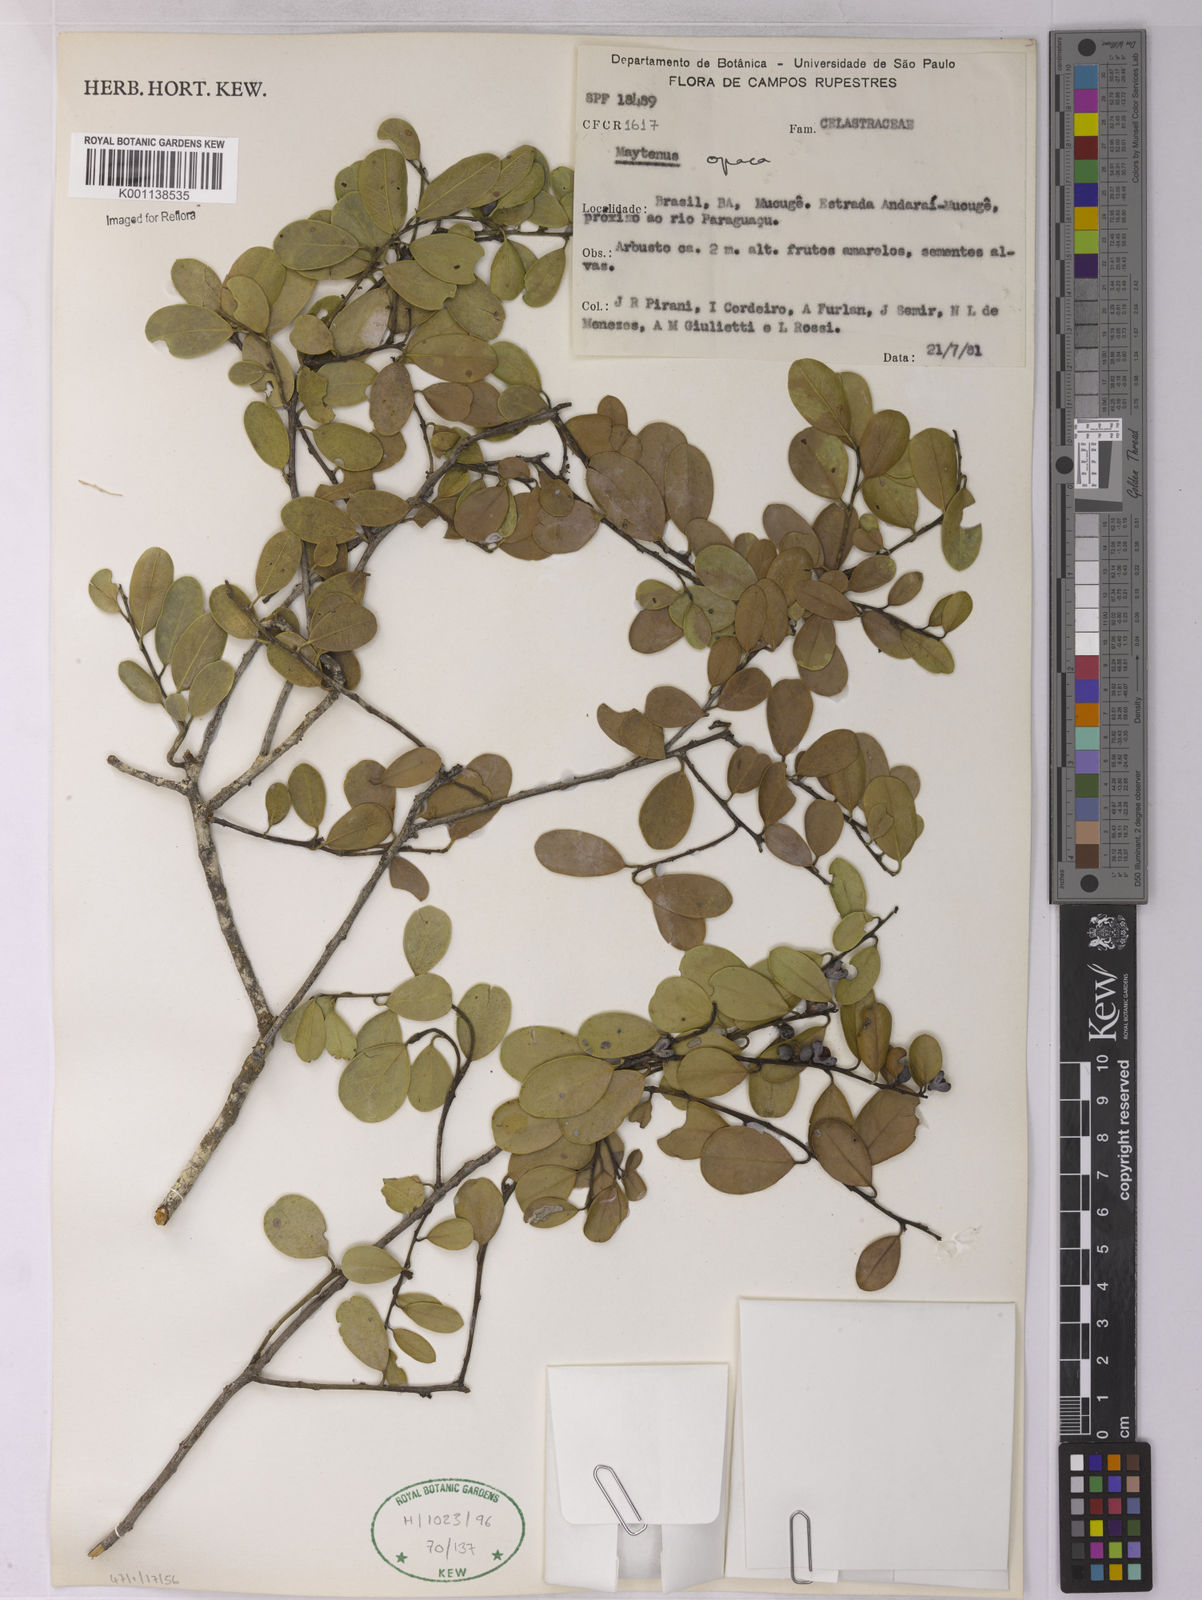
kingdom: Plantae
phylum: Tracheophyta
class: Magnoliopsida
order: Celastrales
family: Celastraceae
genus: Monteverdia
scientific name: Monteverdia opaca
